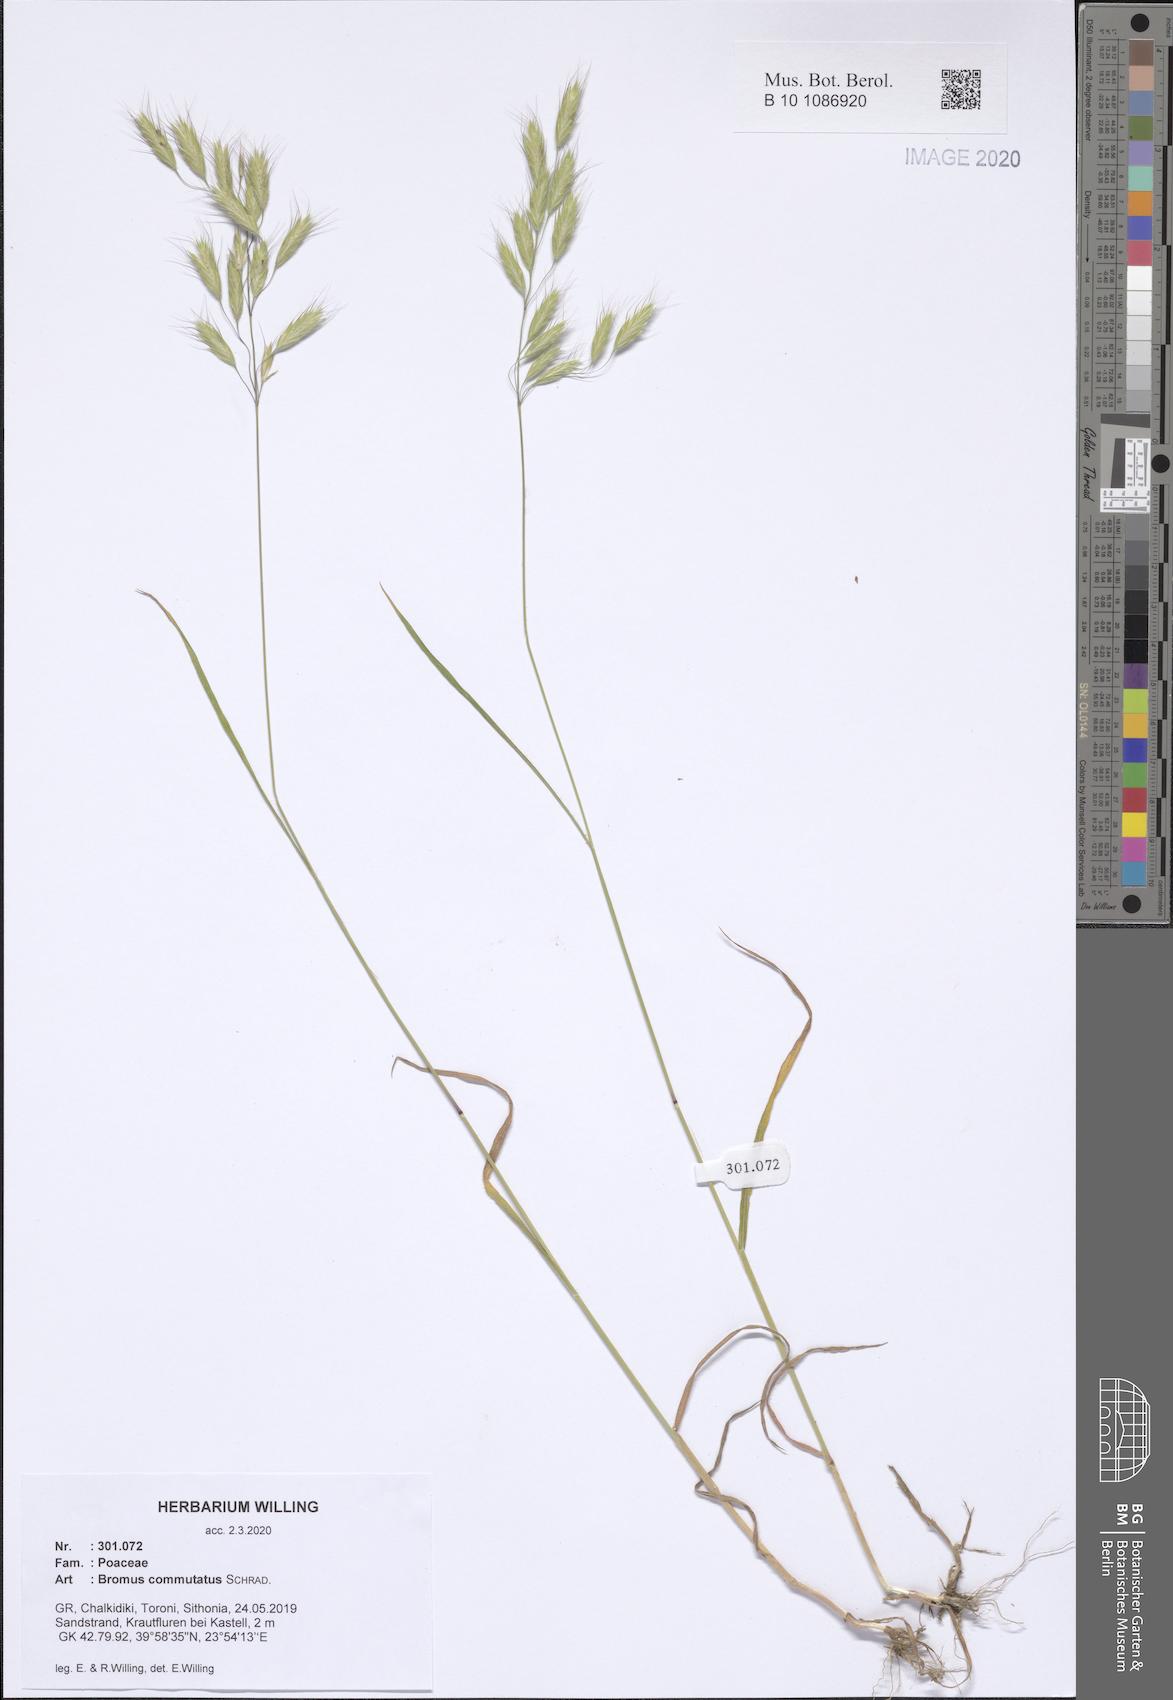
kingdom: Plantae
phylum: Tracheophyta
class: Liliopsida
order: Poales
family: Poaceae
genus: Bromus
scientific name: Bromus commutatus
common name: Meadow brome
